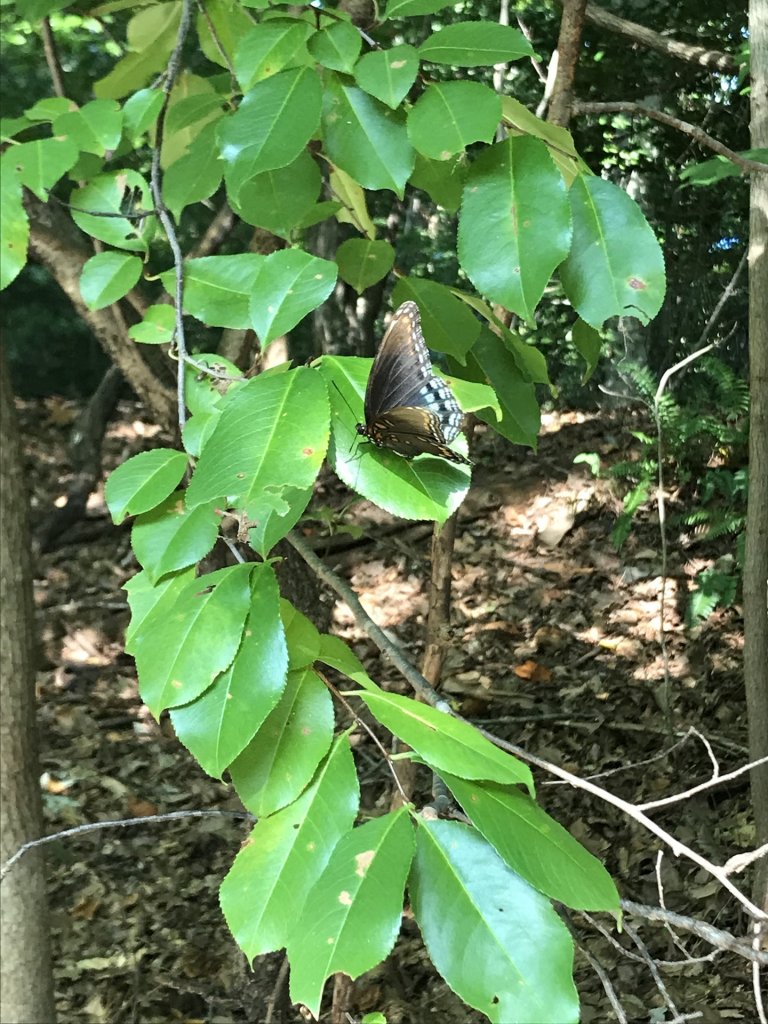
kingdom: Animalia
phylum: Arthropoda
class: Insecta
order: Lepidoptera
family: Nymphalidae
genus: Limenitis
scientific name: Limenitis astyanax
